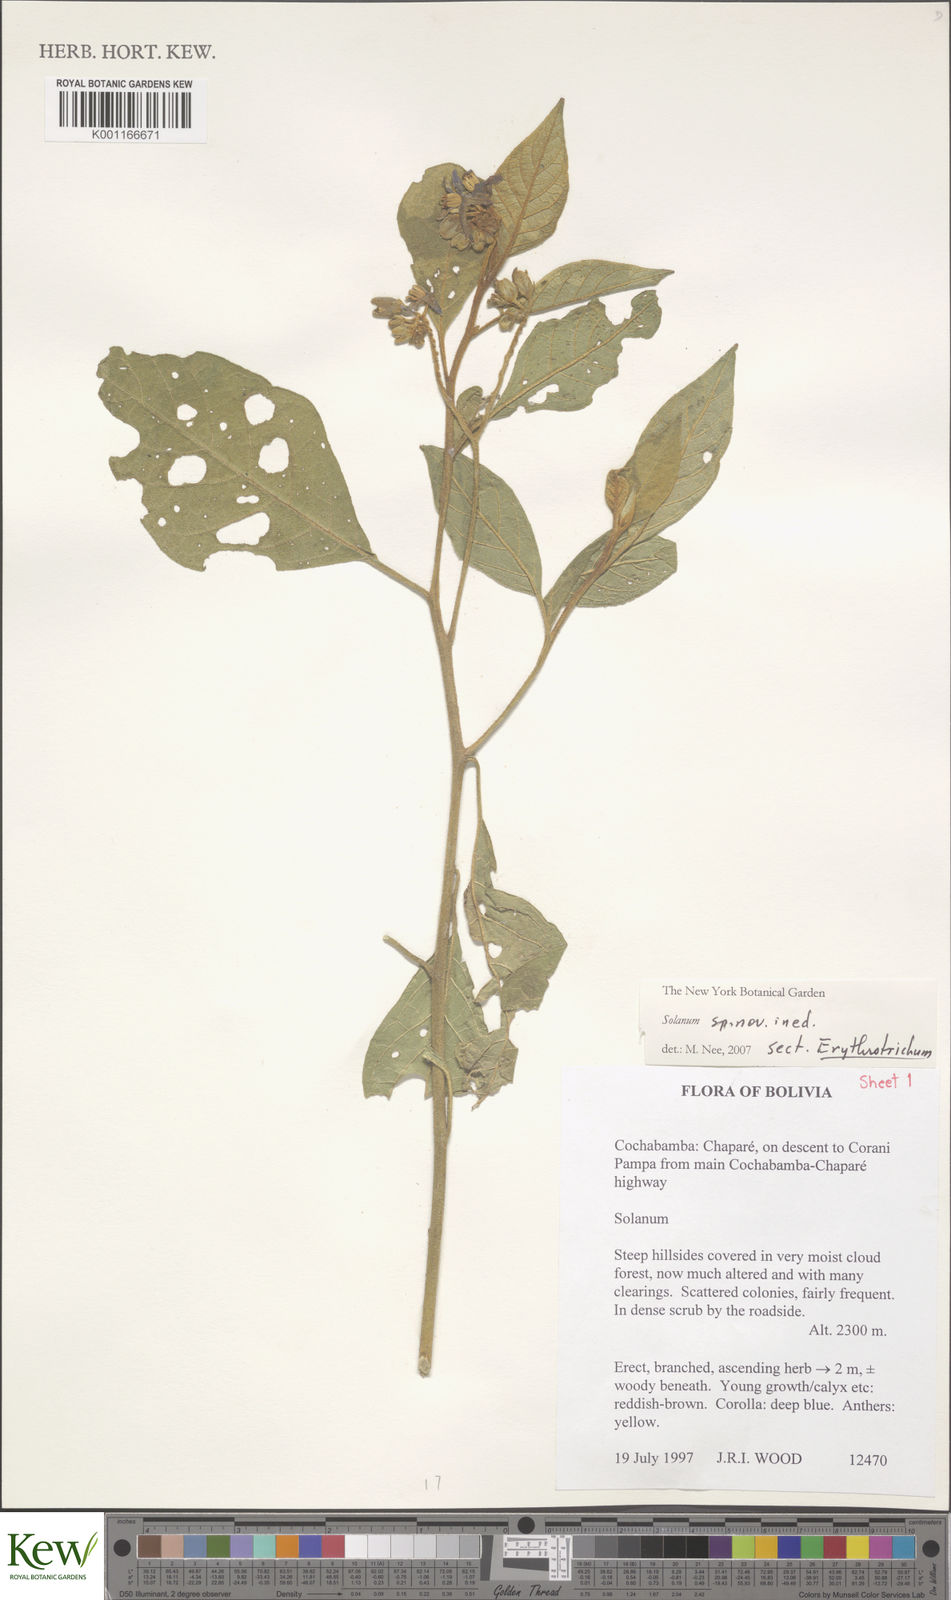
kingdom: Plantae
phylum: Tracheophyta
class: Magnoliopsida
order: Solanales
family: Solanaceae
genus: Solanum
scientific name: Solanum
